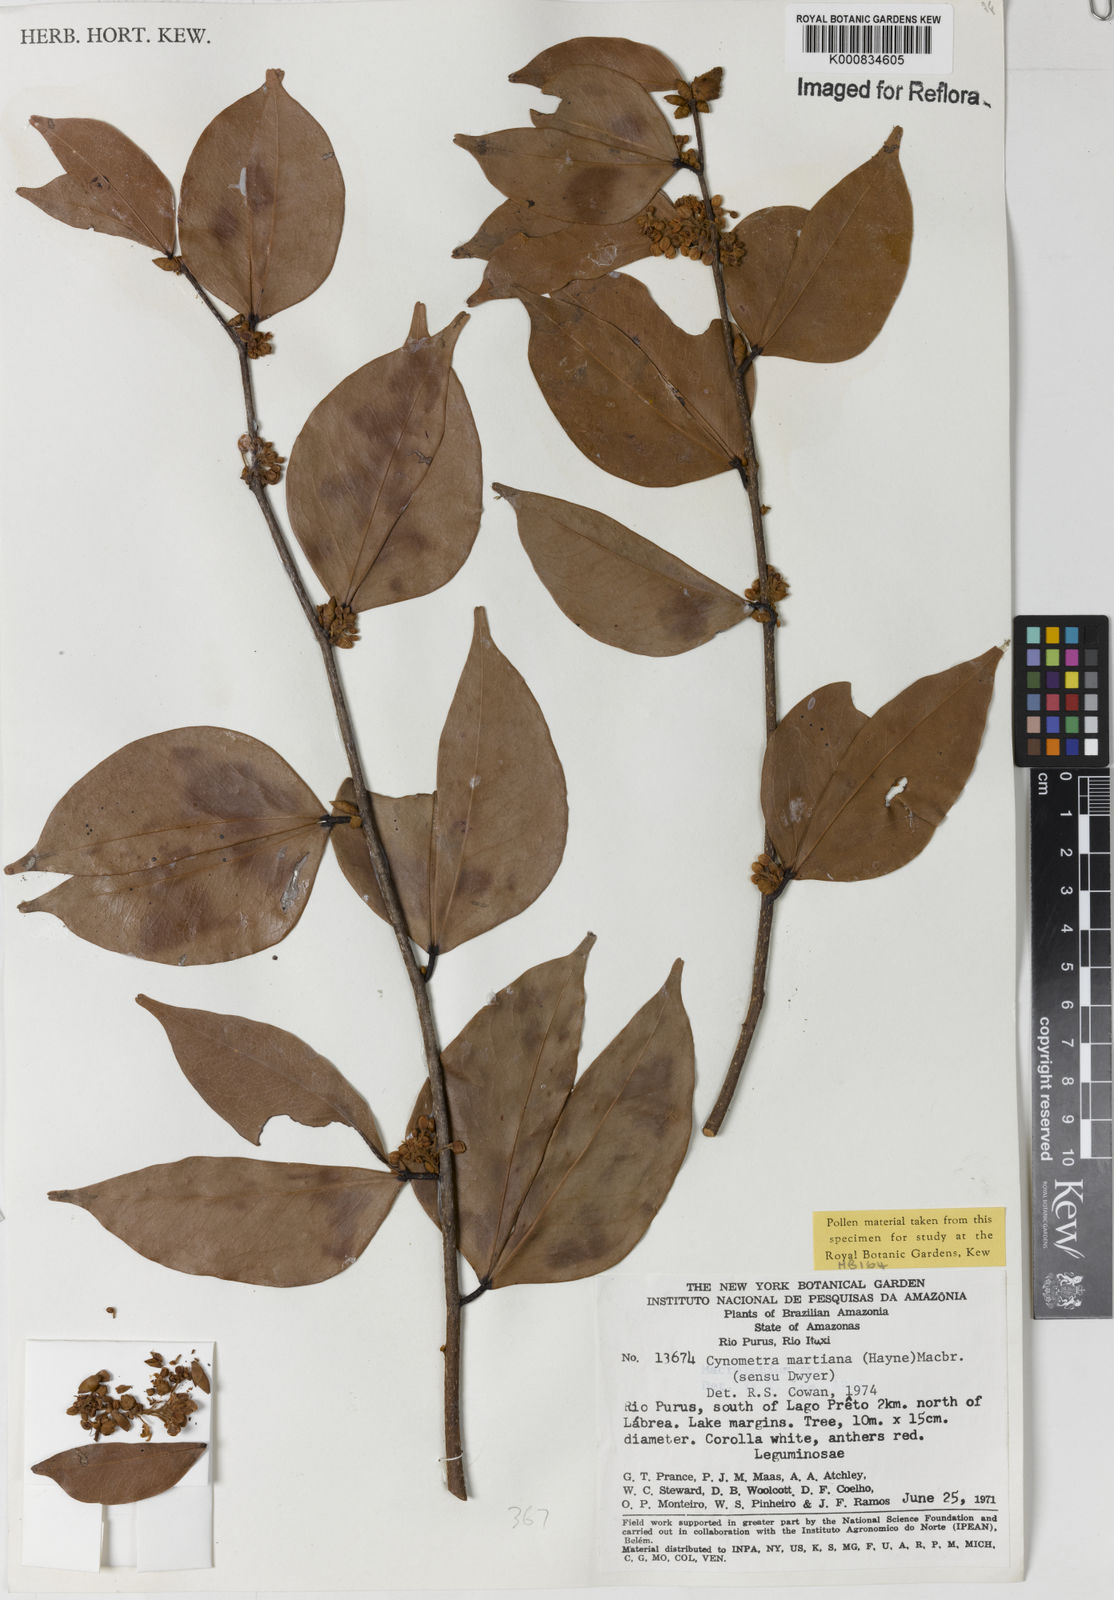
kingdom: Plantae
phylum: Tracheophyta
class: Magnoliopsida
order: Fabales
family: Fabaceae
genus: Cynometra
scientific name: Cynometra phaselocarpa
